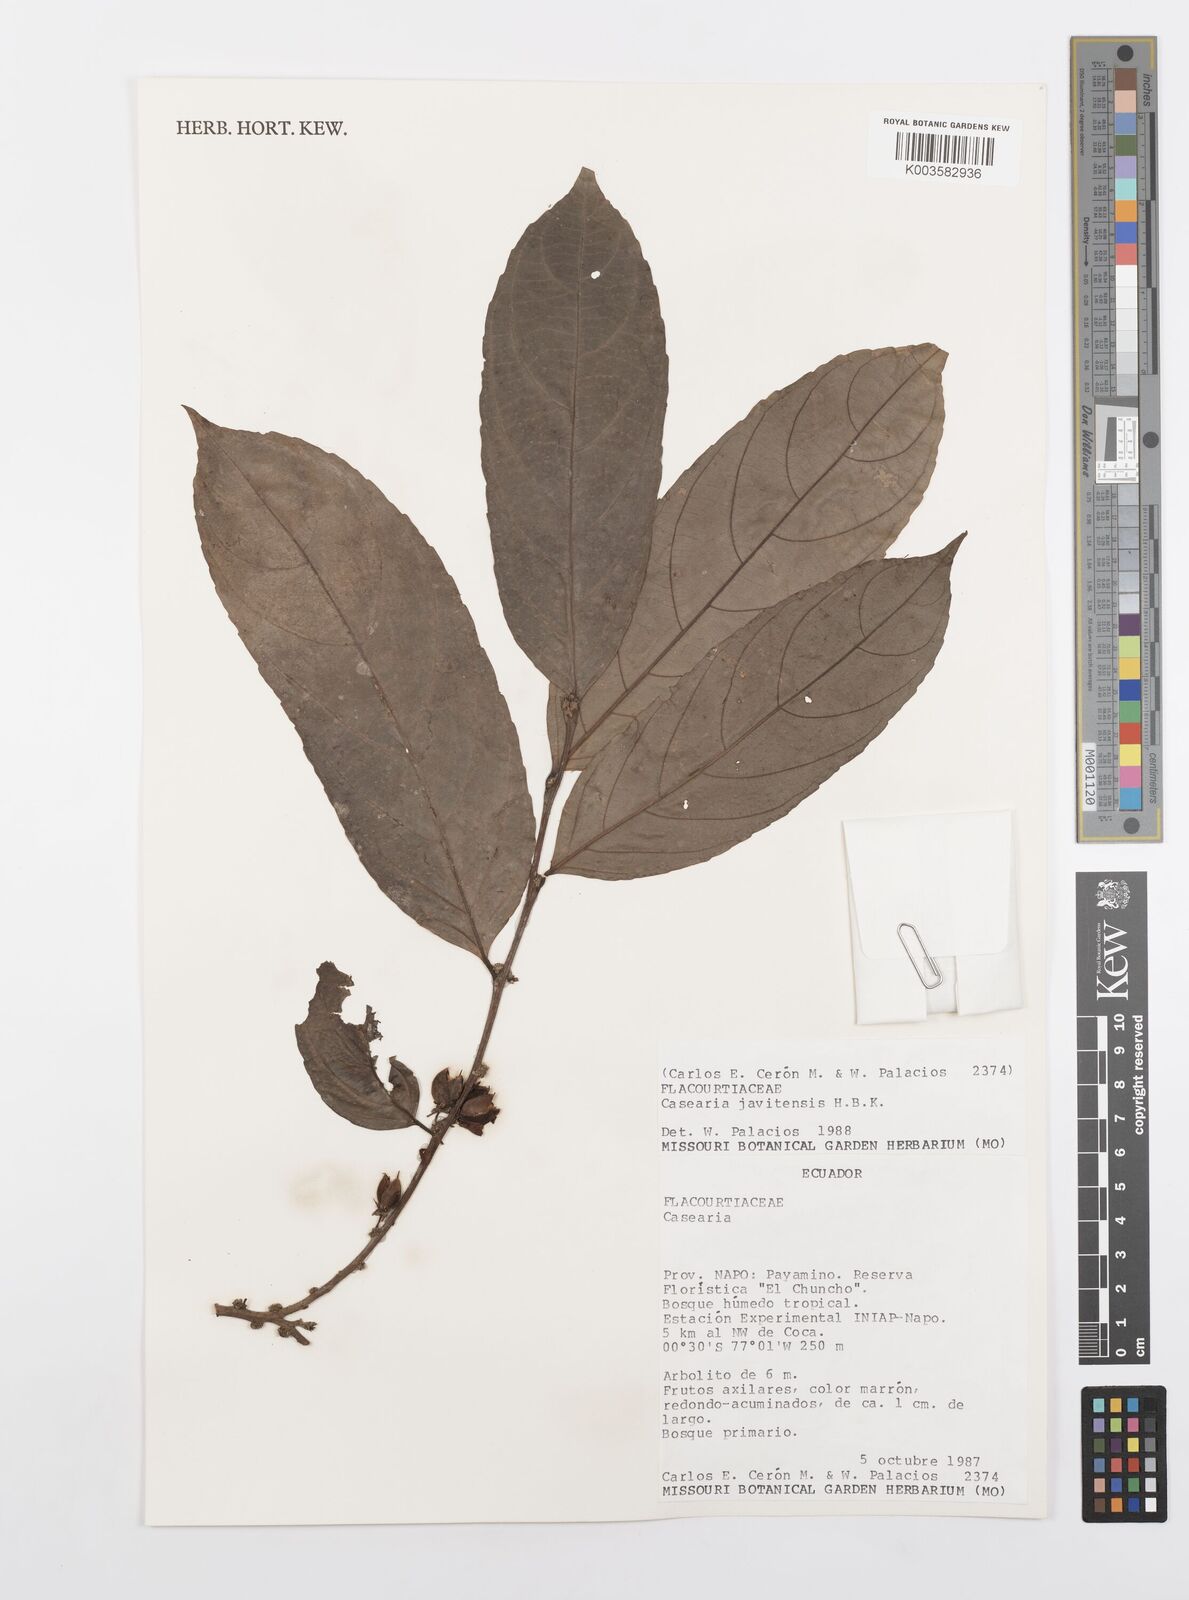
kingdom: Plantae
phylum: Tracheophyta
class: Magnoliopsida
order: Malpighiales
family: Salicaceae
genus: Piparea
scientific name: Piparea multiflora
